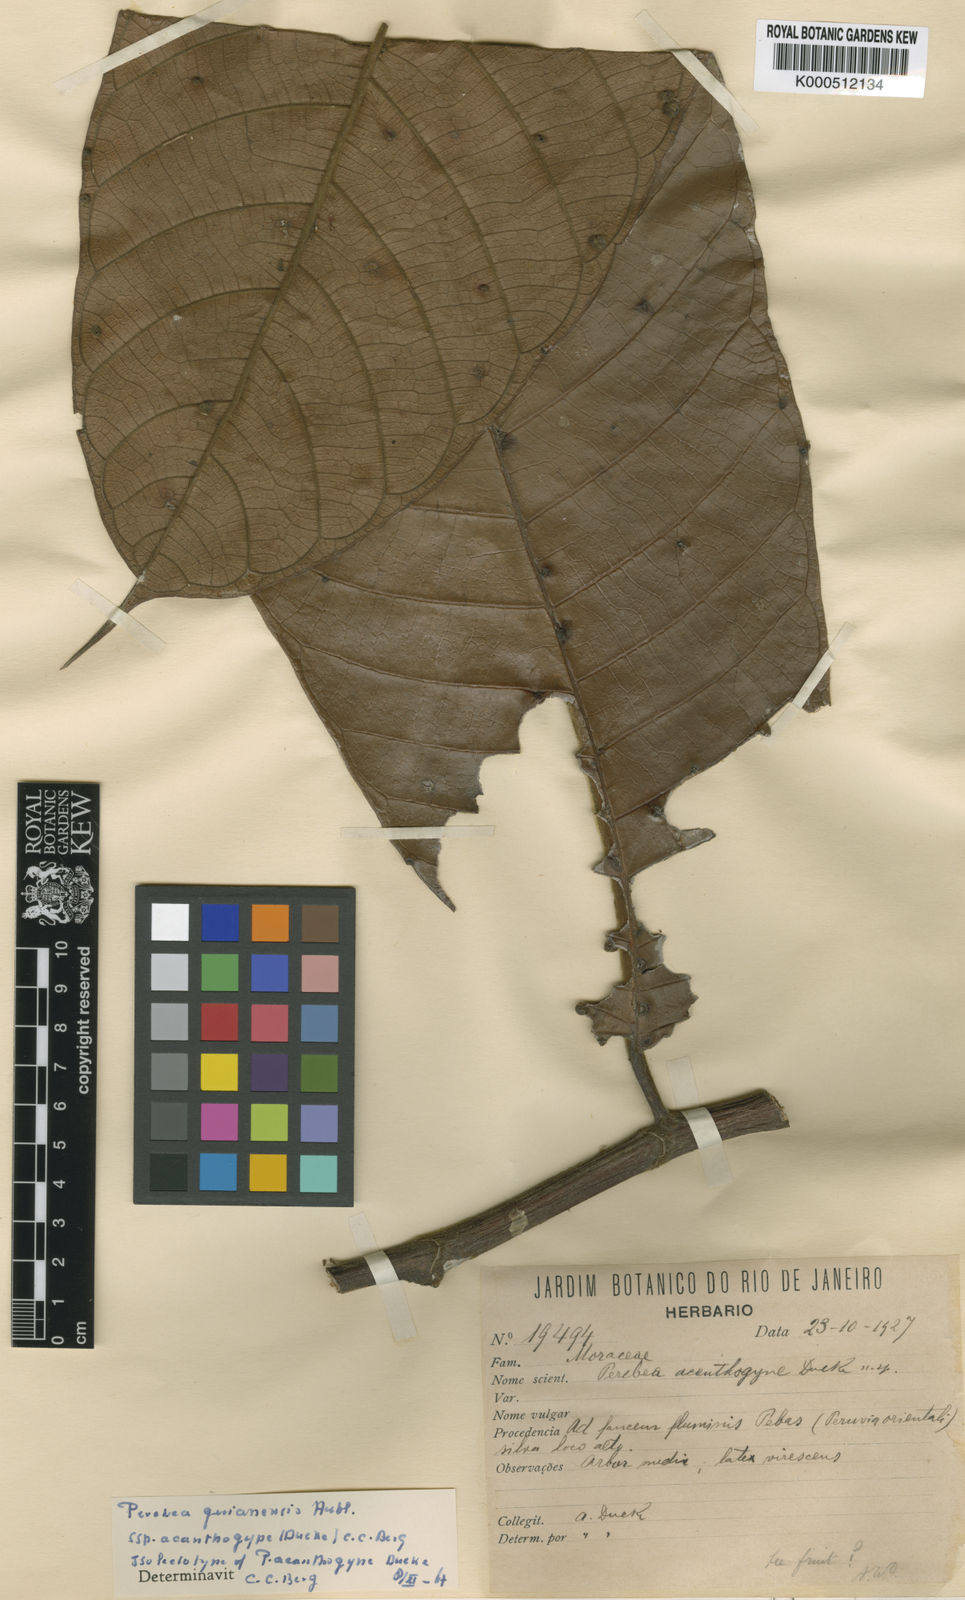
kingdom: Plantae
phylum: Tracheophyta
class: Magnoliopsida
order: Rosales
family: Moraceae
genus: Perebea
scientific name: Perebea guianensis
